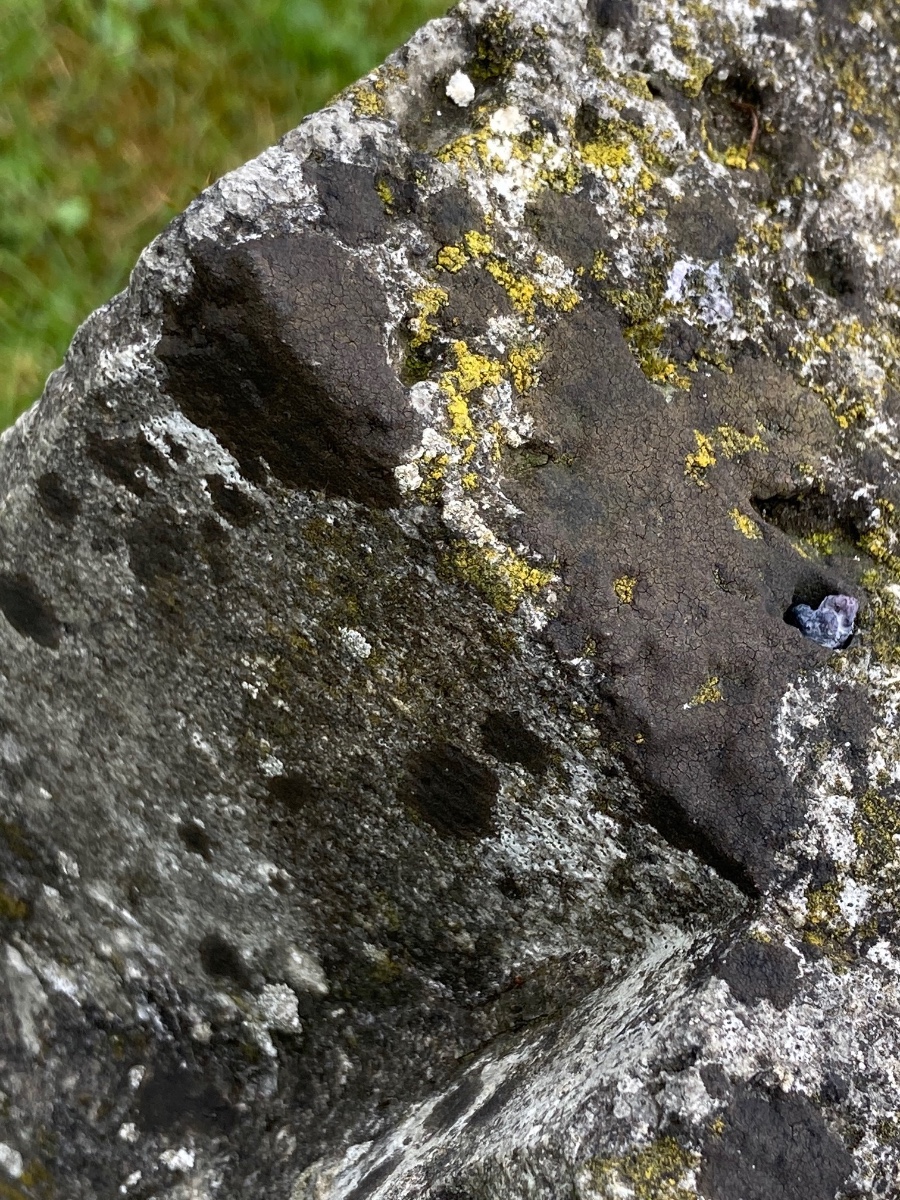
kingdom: Fungi
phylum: Ascomycota
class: Eurotiomycetes
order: Verrucariales
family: Verrucariaceae
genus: Verrucaria
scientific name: Verrucaria nigrescens
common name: sortbrun vortelav
